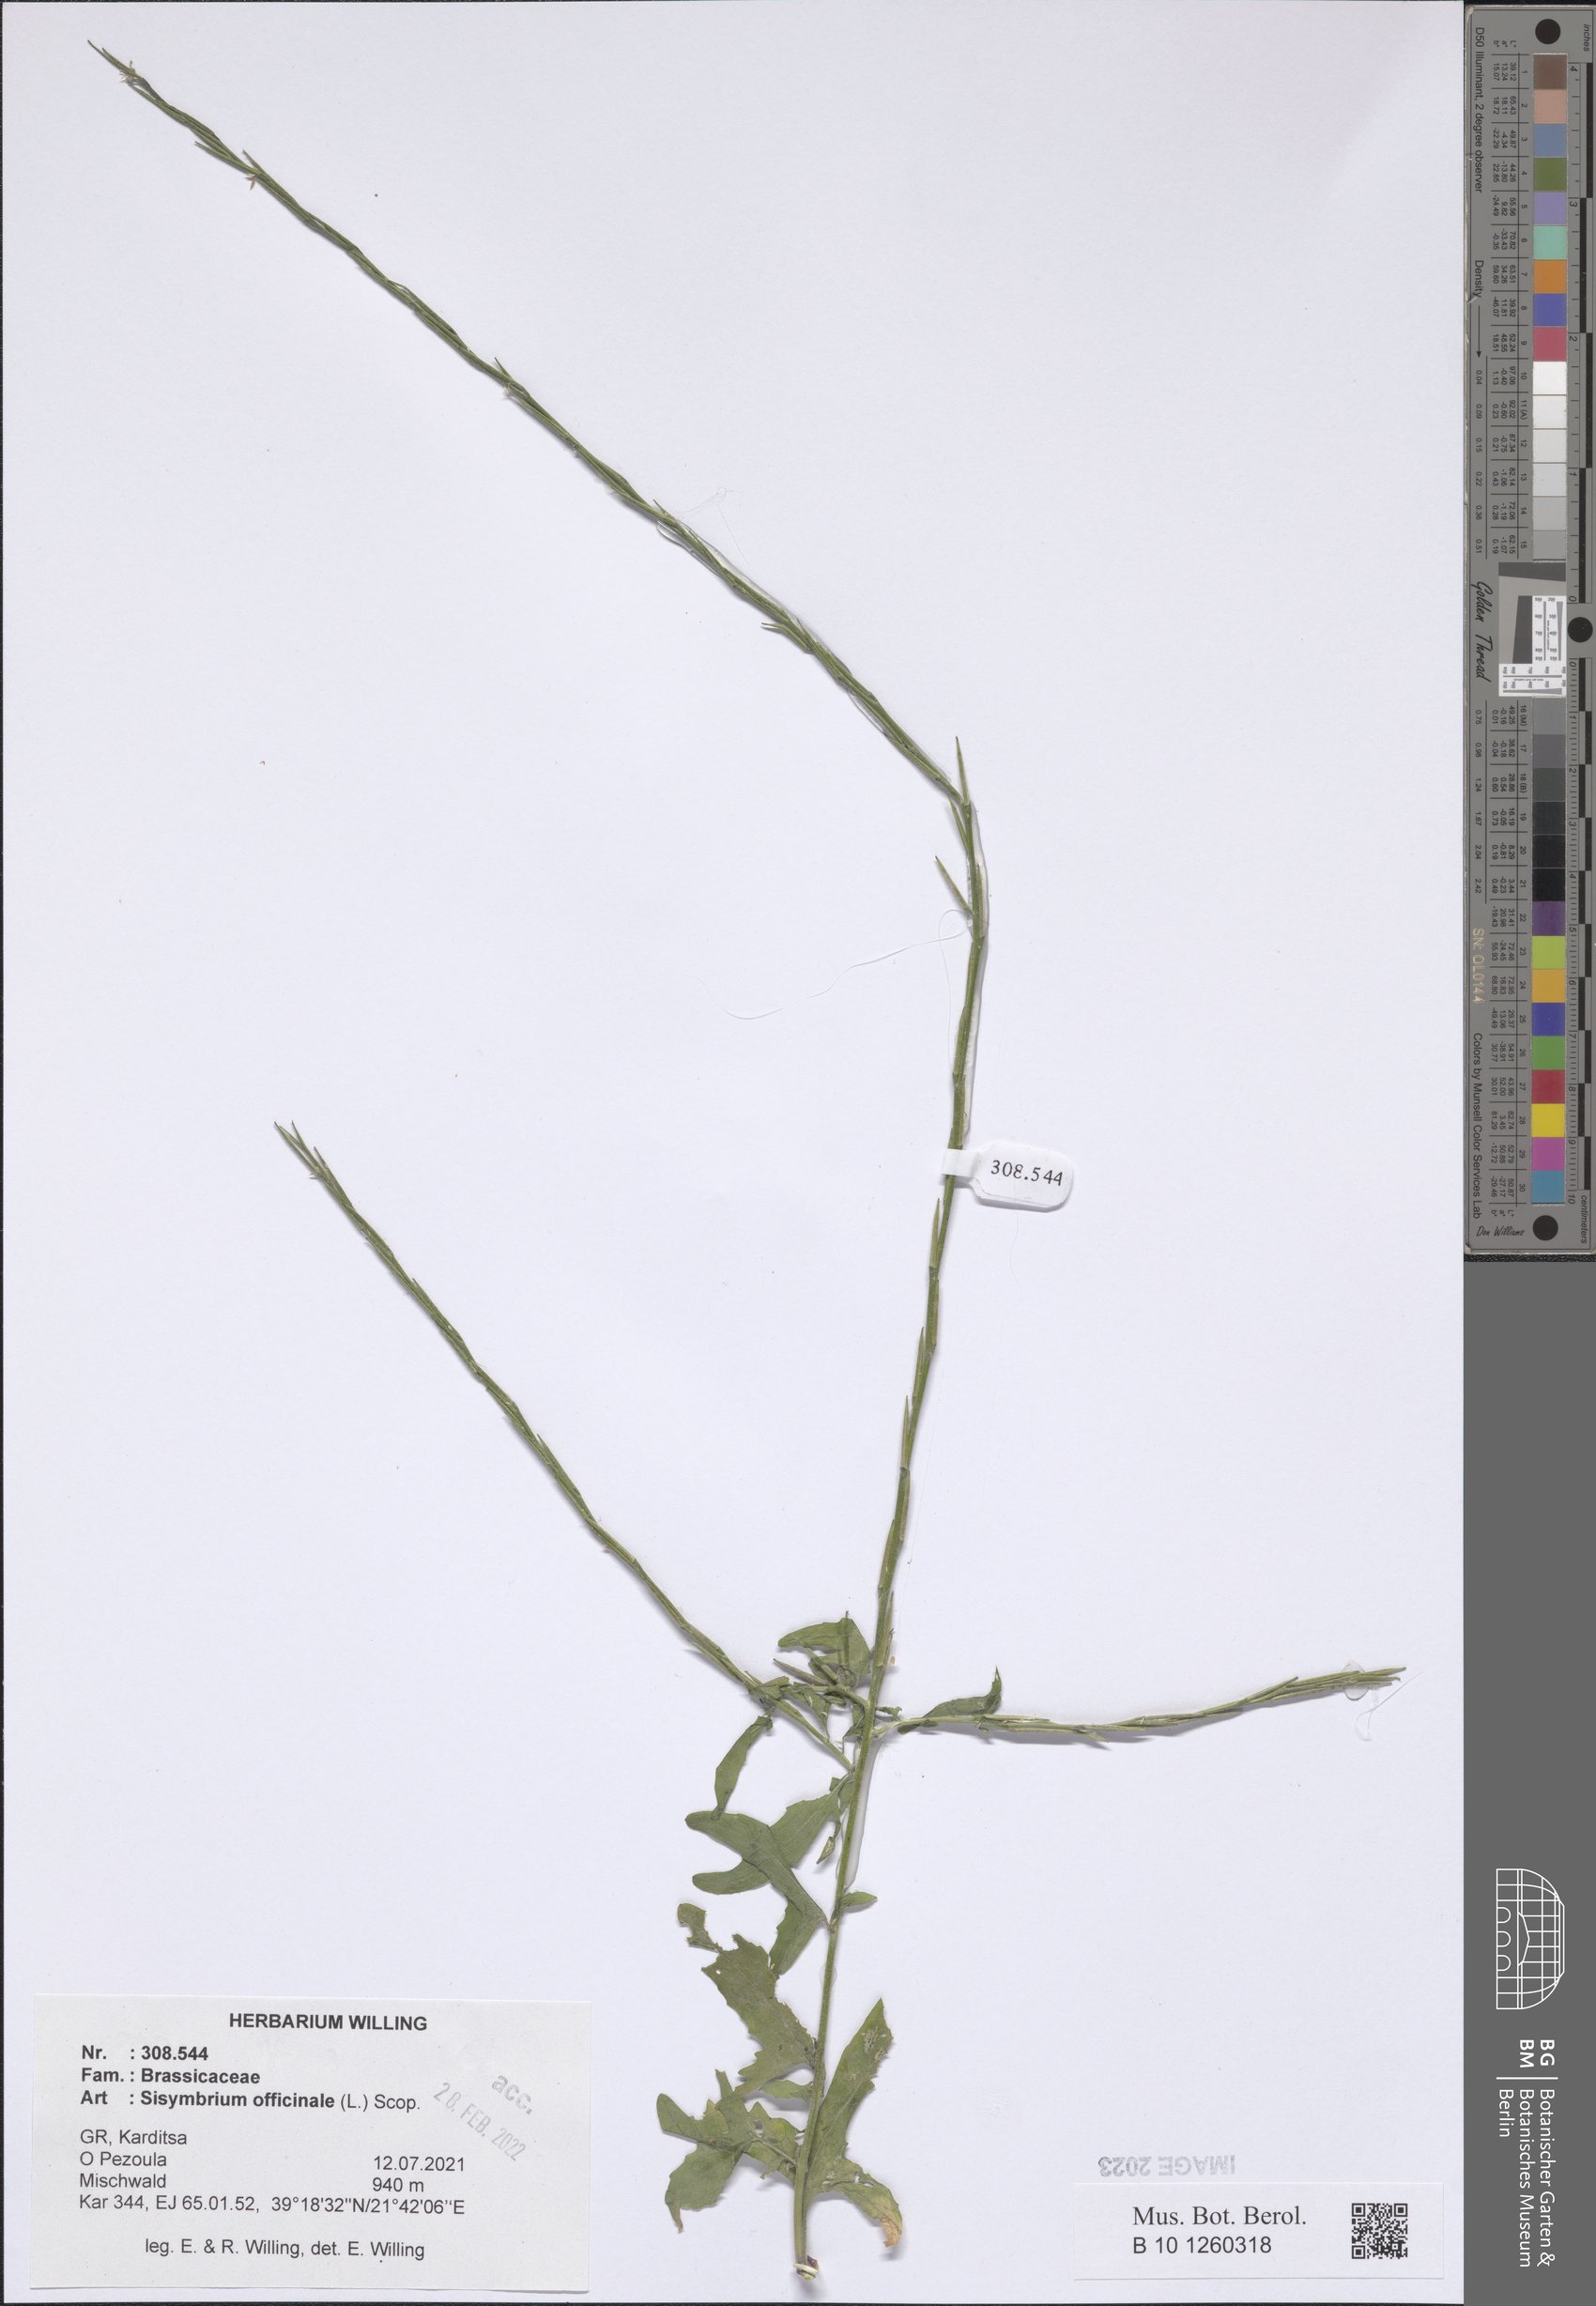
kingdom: Plantae
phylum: Tracheophyta
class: Magnoliopsida
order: Brassicales
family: Brassicaceae
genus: Sisymbrium
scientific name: Sisymbrium officinale
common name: Hedge mustard
